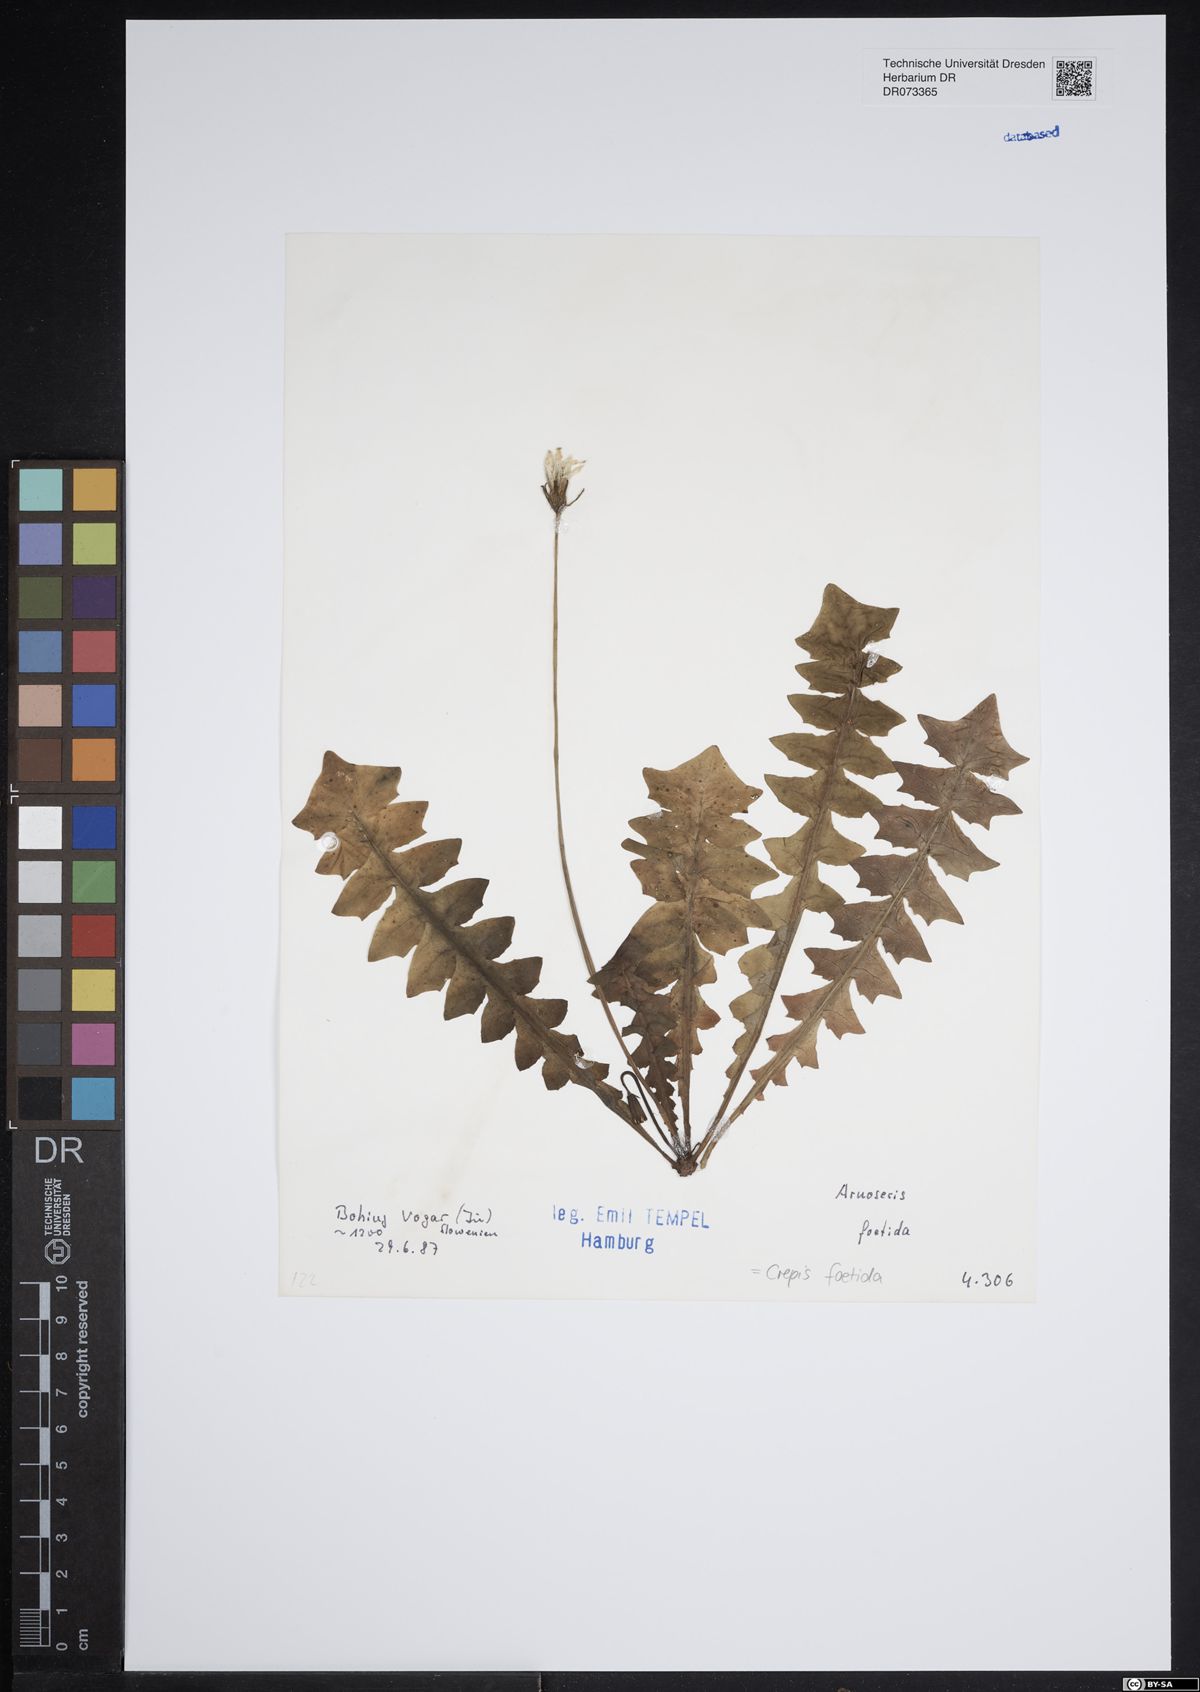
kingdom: Plantae
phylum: Tracheophyta
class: Magnoliopsida
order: Asterales
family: Asteraceae
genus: Crepis
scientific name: Crepis foetida
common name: Stinking hawk's-beard
